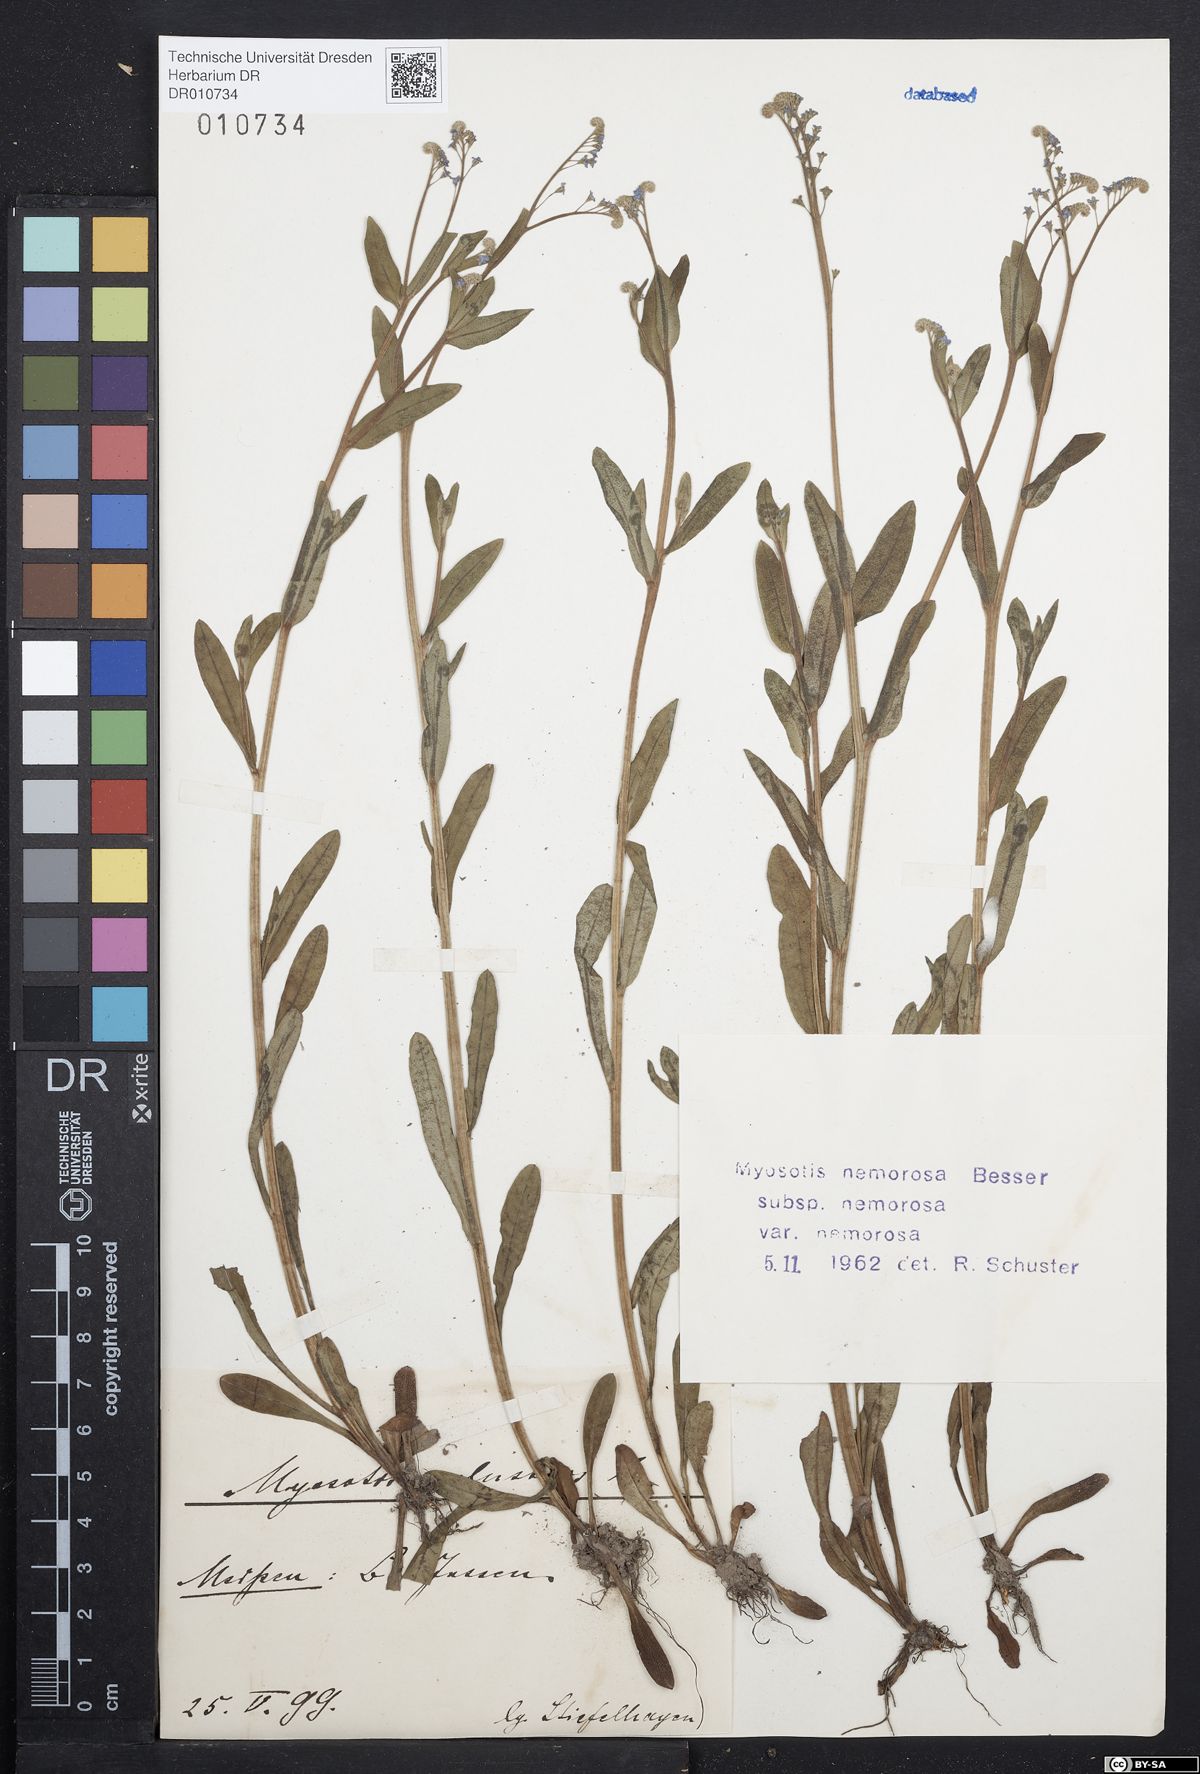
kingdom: Plantae
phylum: Tracheophyta
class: Magnoliopsida
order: Boraginales
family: Boraginaceae
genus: Myosotis
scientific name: Myosotis nemorosa
